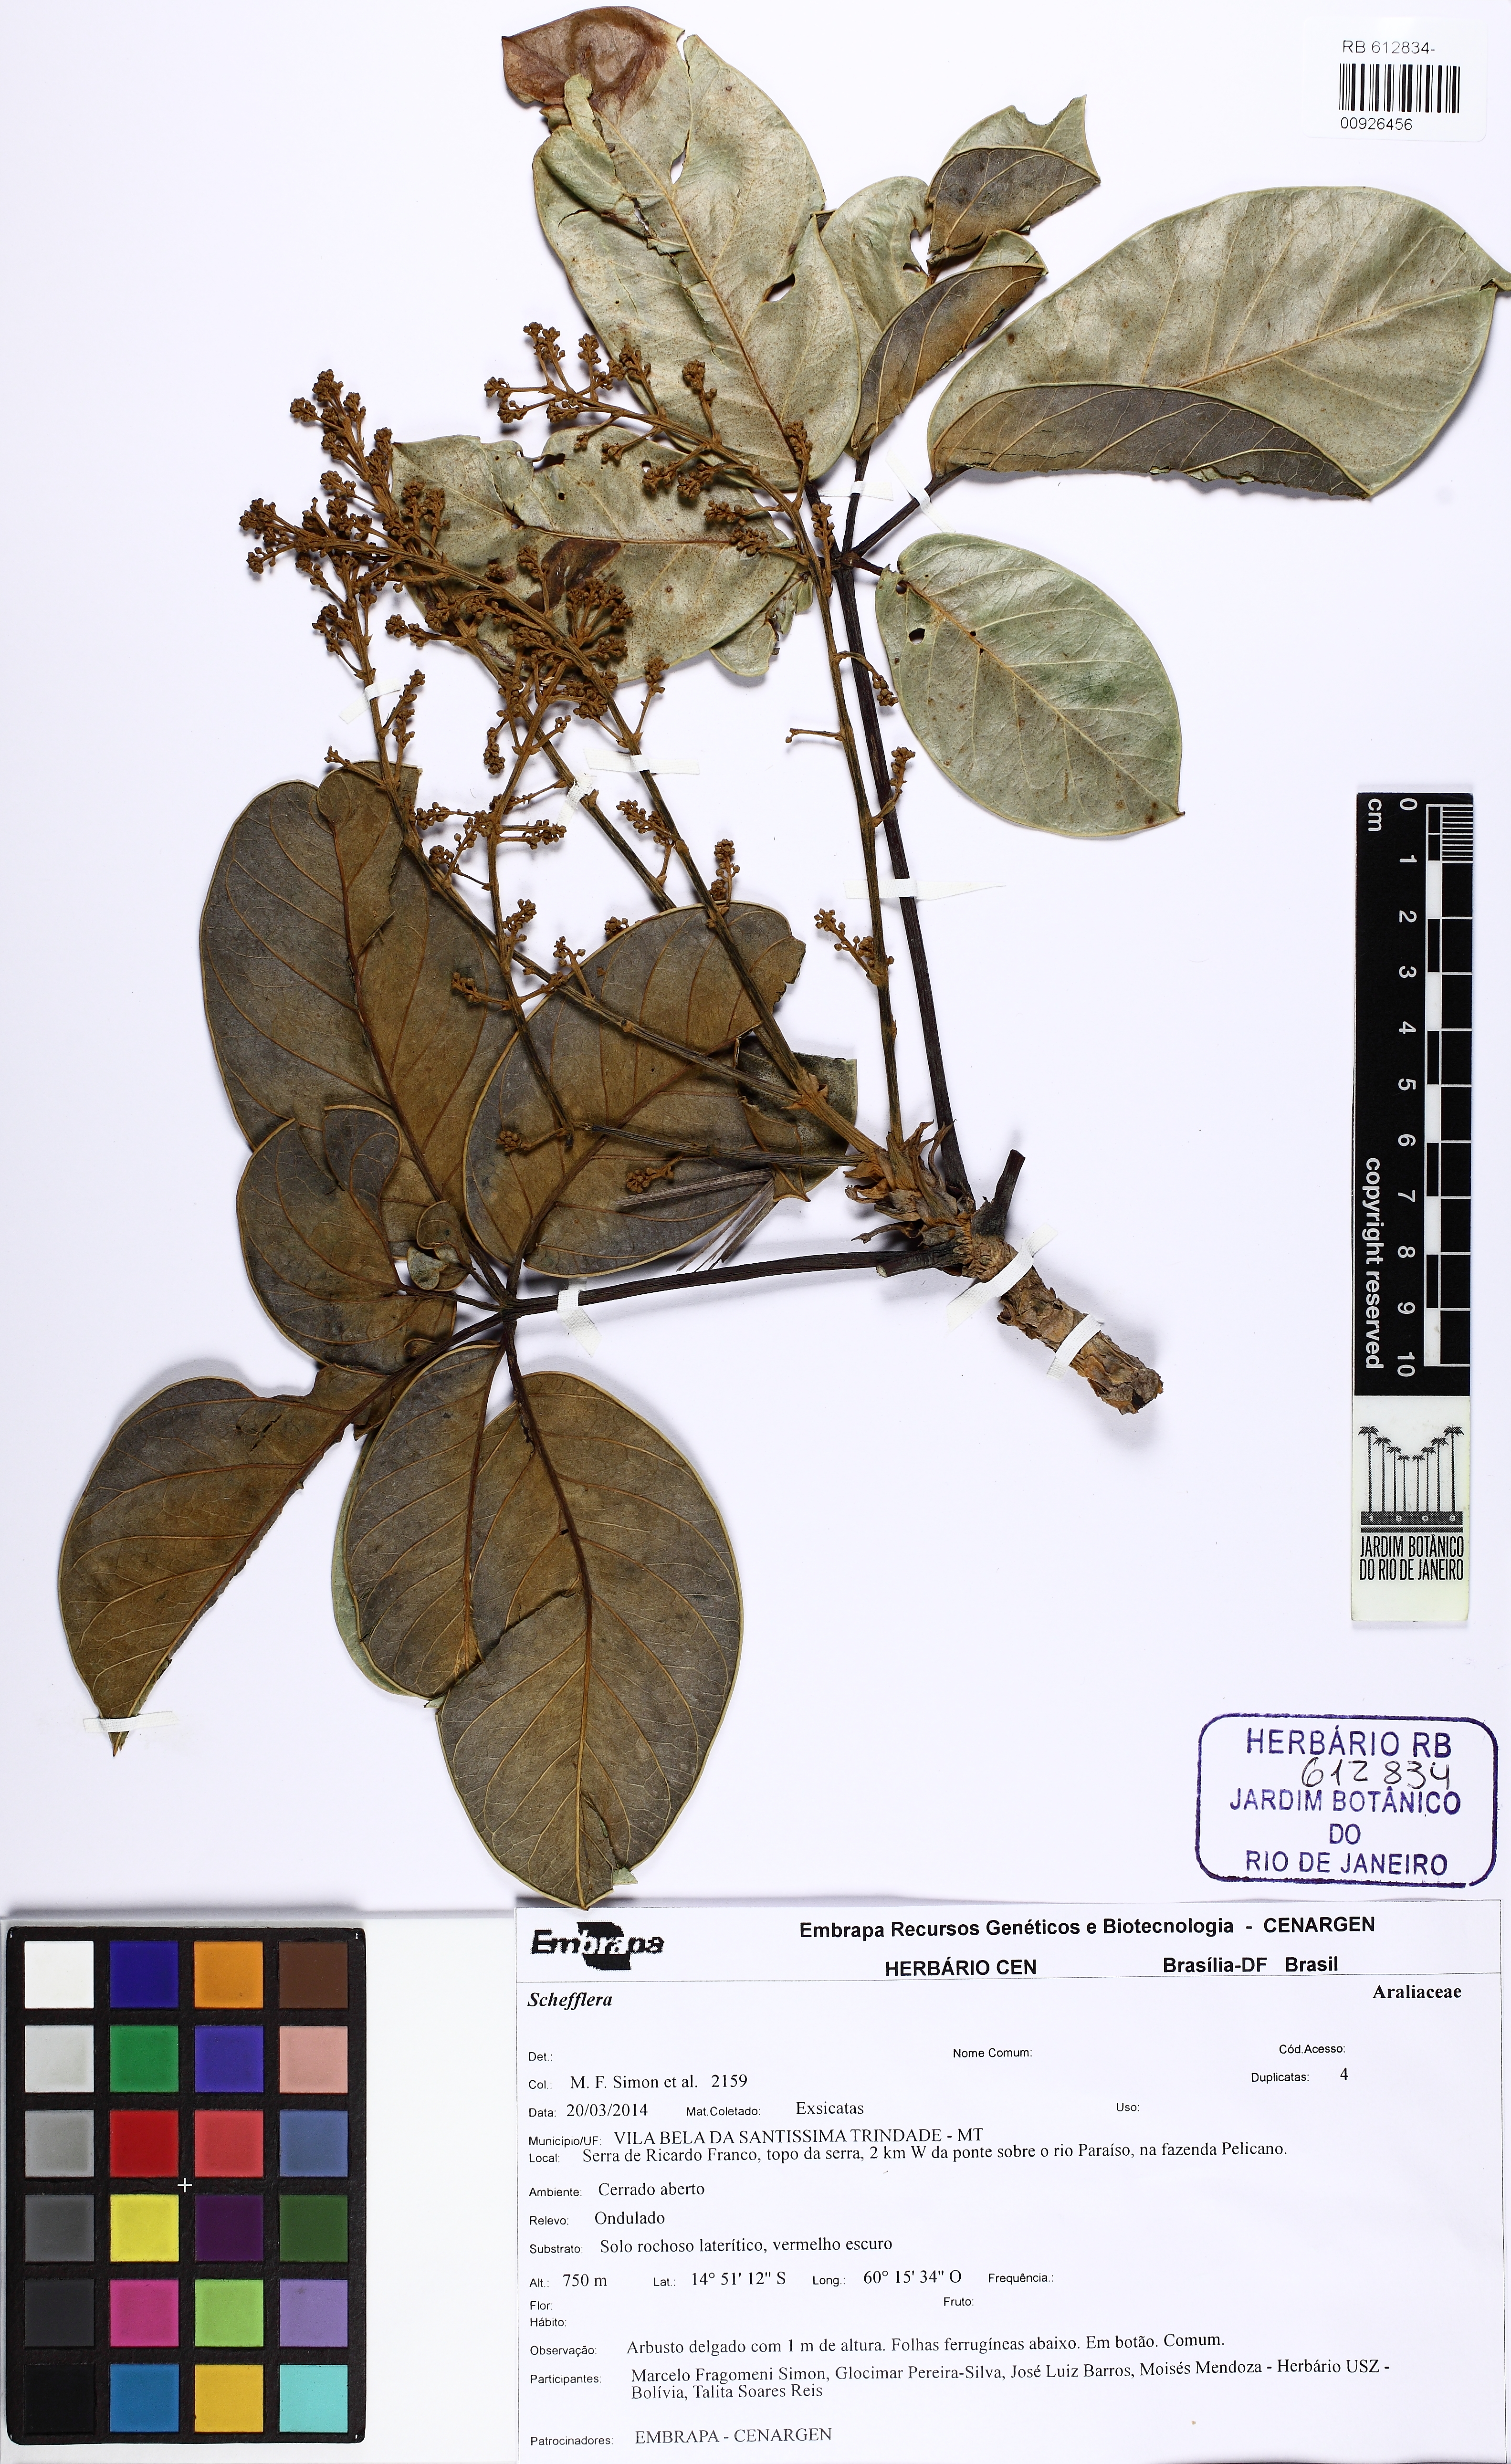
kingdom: Plantae
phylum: Tracheophyta
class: Magnoliopsida
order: Apiales
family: Araliaceae
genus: Didymopanax
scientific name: Didymopanax distractiflorus
